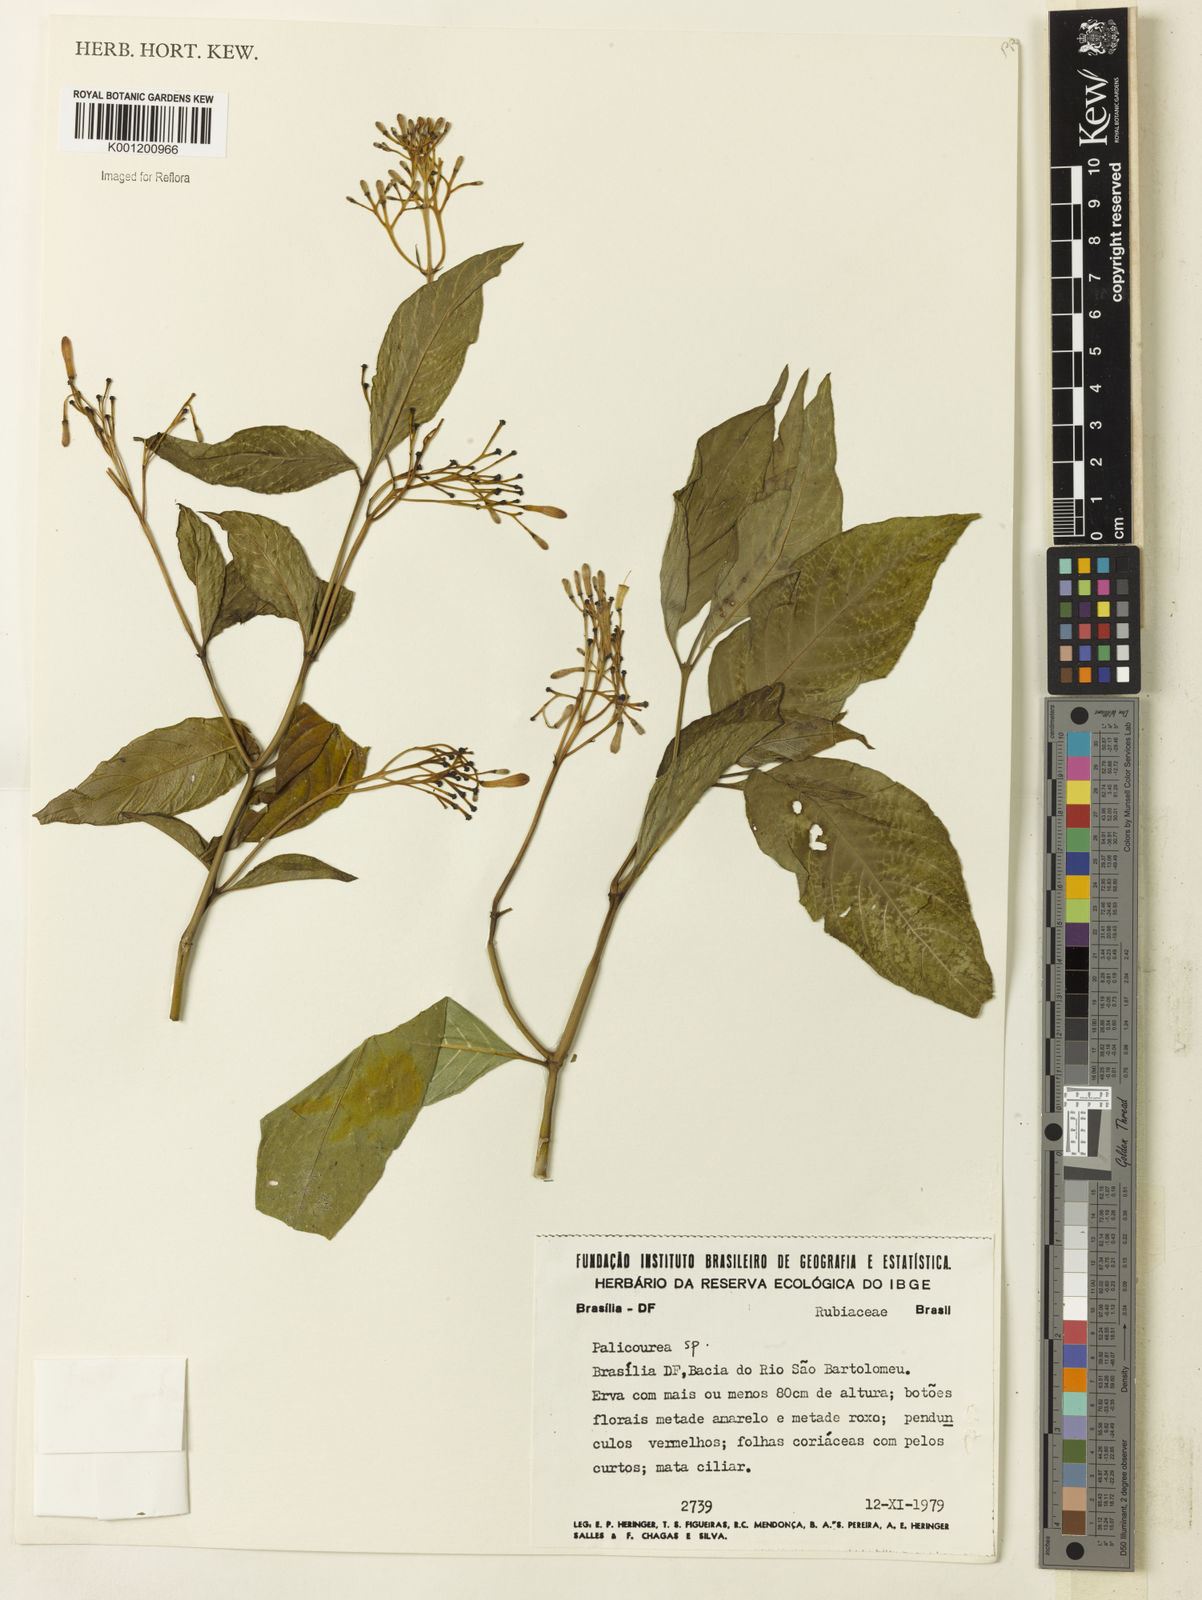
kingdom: Plantae
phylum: Tracheophyta
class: Magnoliopsida
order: Gentianales
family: Rubiaceae
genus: Palicourea
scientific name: Palicourea marcgravii
